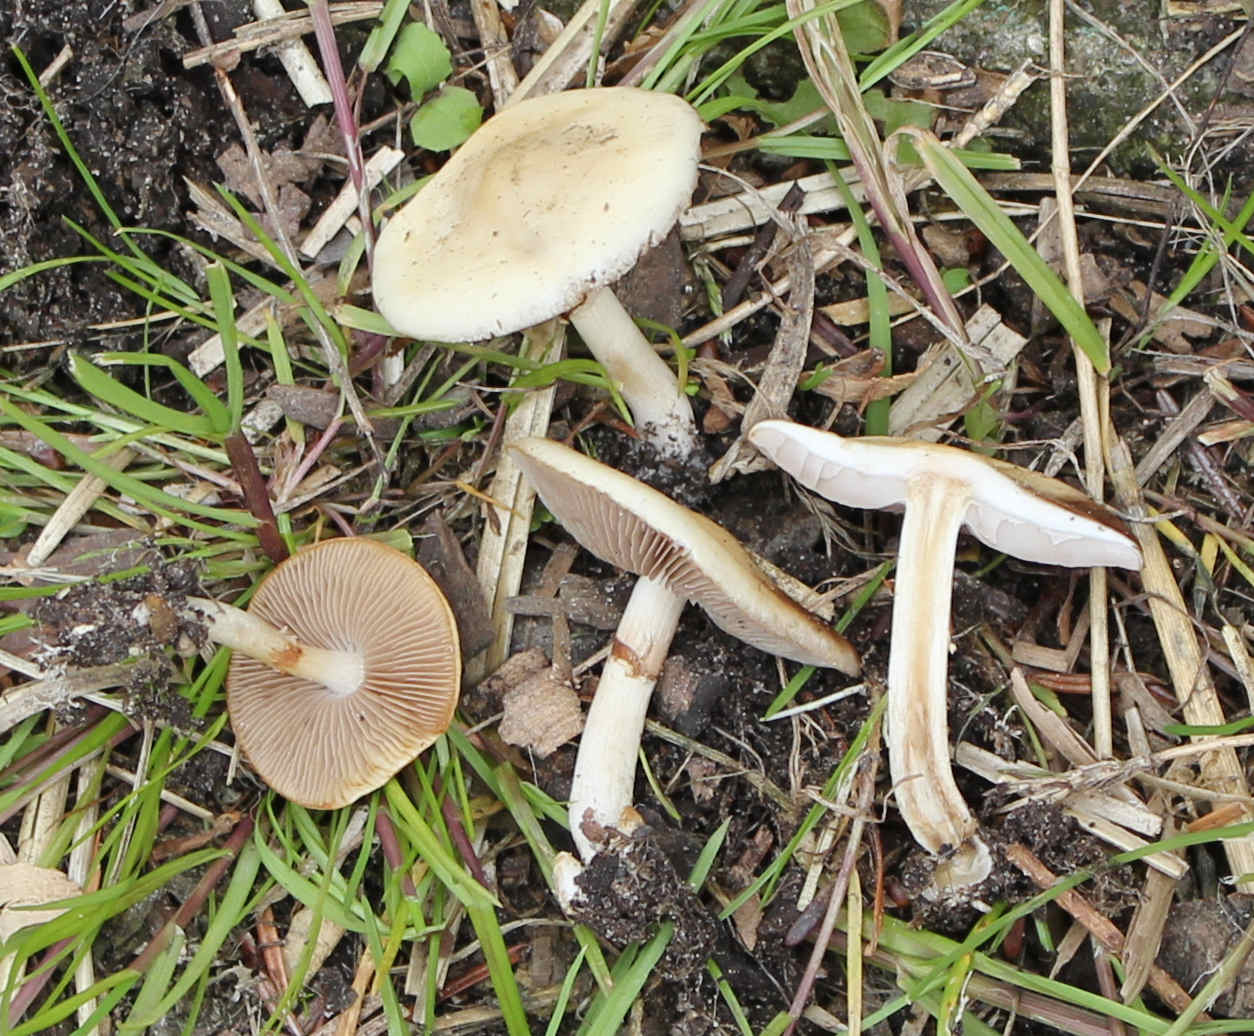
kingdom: Fungi
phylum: Basidiomycota
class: Agaricomycetes
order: Agaricales
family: Strophariaceae
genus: Agrocybe
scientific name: Agrocybe praecox
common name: tidlig agerhat
